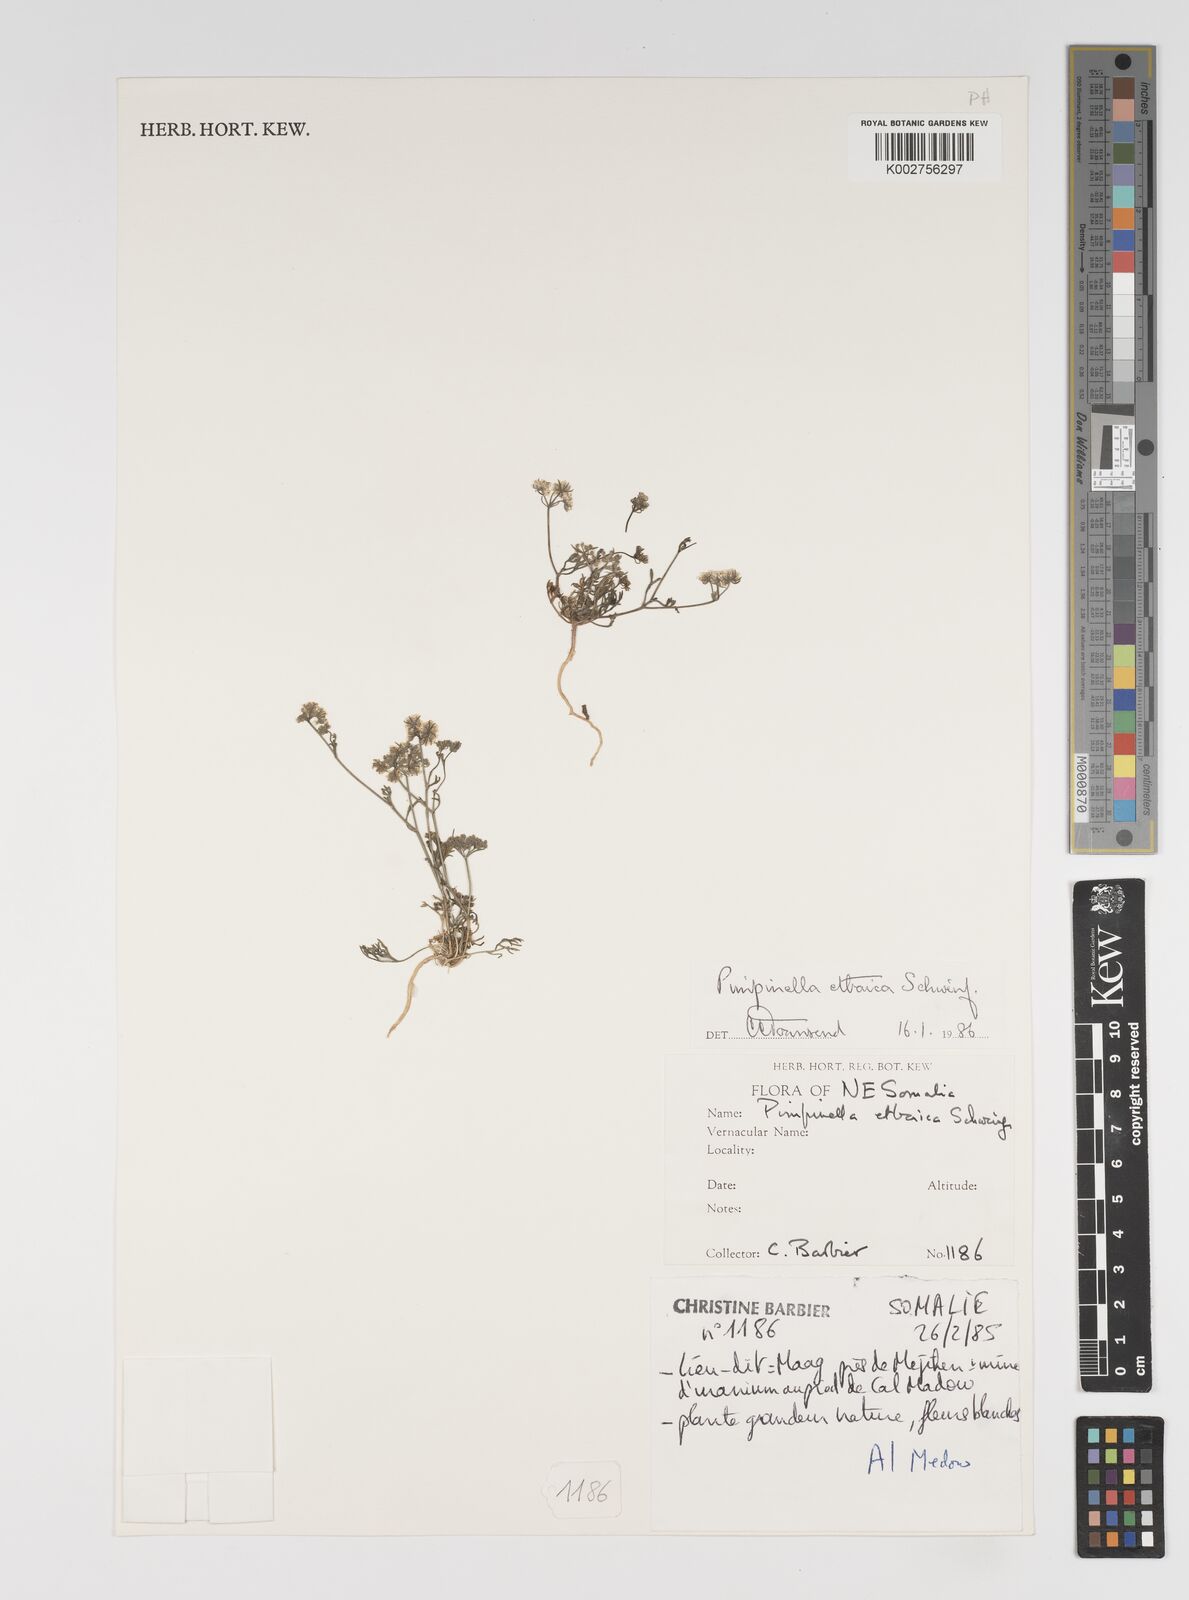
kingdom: Plantae
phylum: Tracheophyta
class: Magnoliopsida
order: Apiales
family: Apiaceae
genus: Pimpinella
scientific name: Pimpinella etbaica
